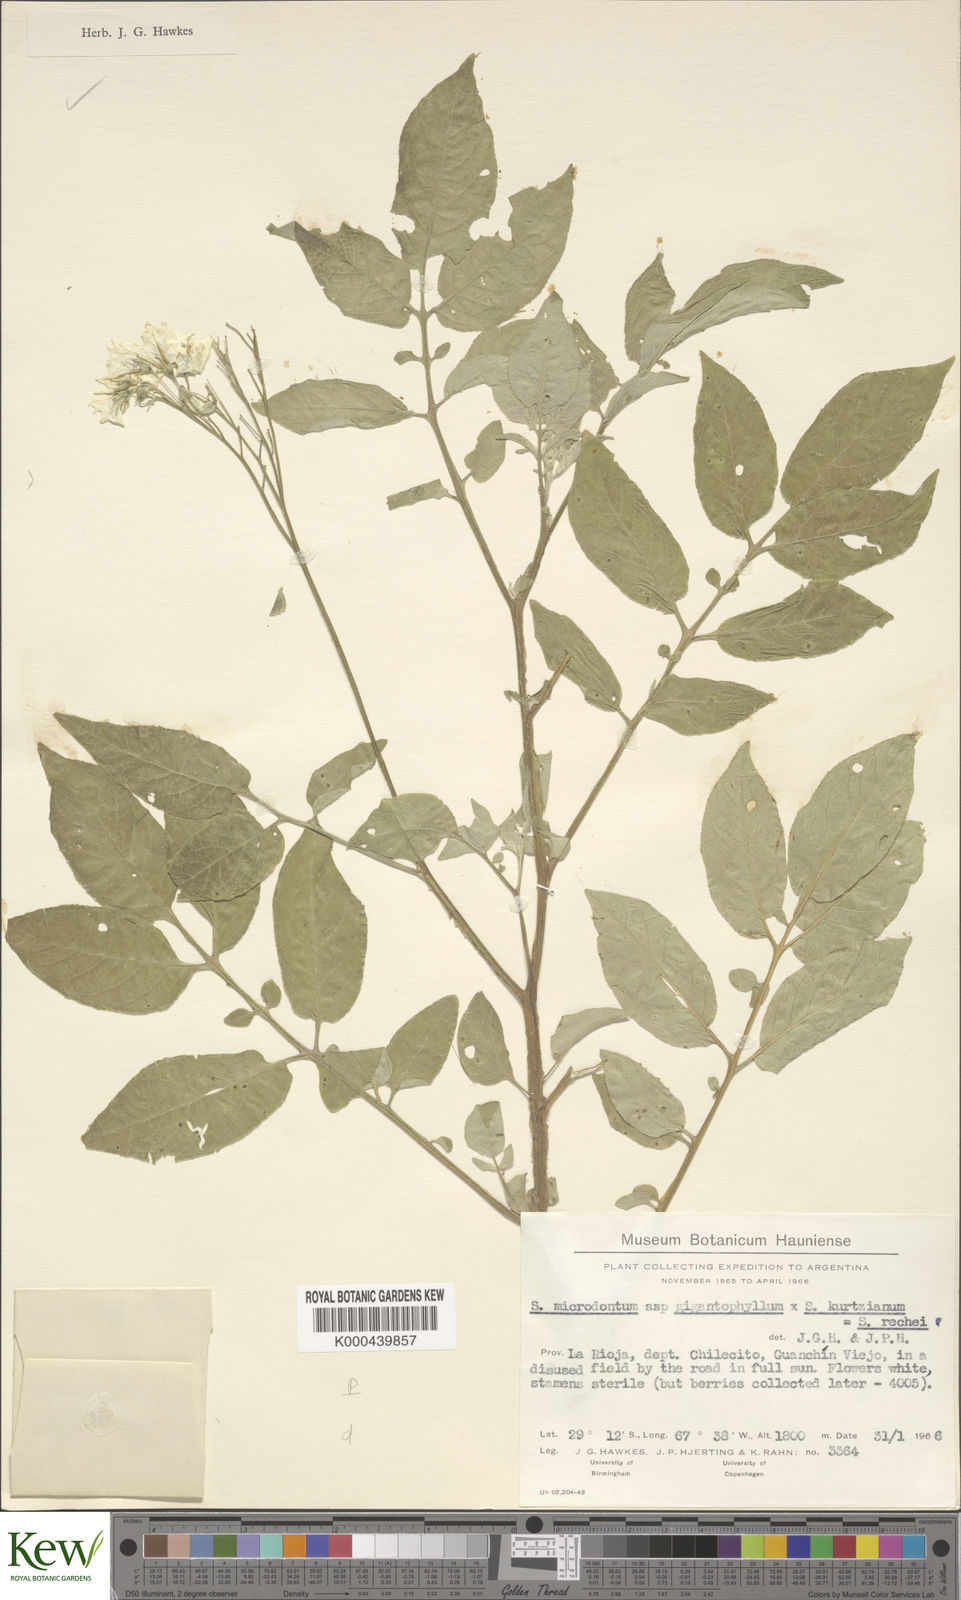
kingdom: Plantae
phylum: Tracheophyta
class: Magnoliopsida
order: Solanales
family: Solanaceae
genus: Solanum
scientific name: Solanum microdontum
